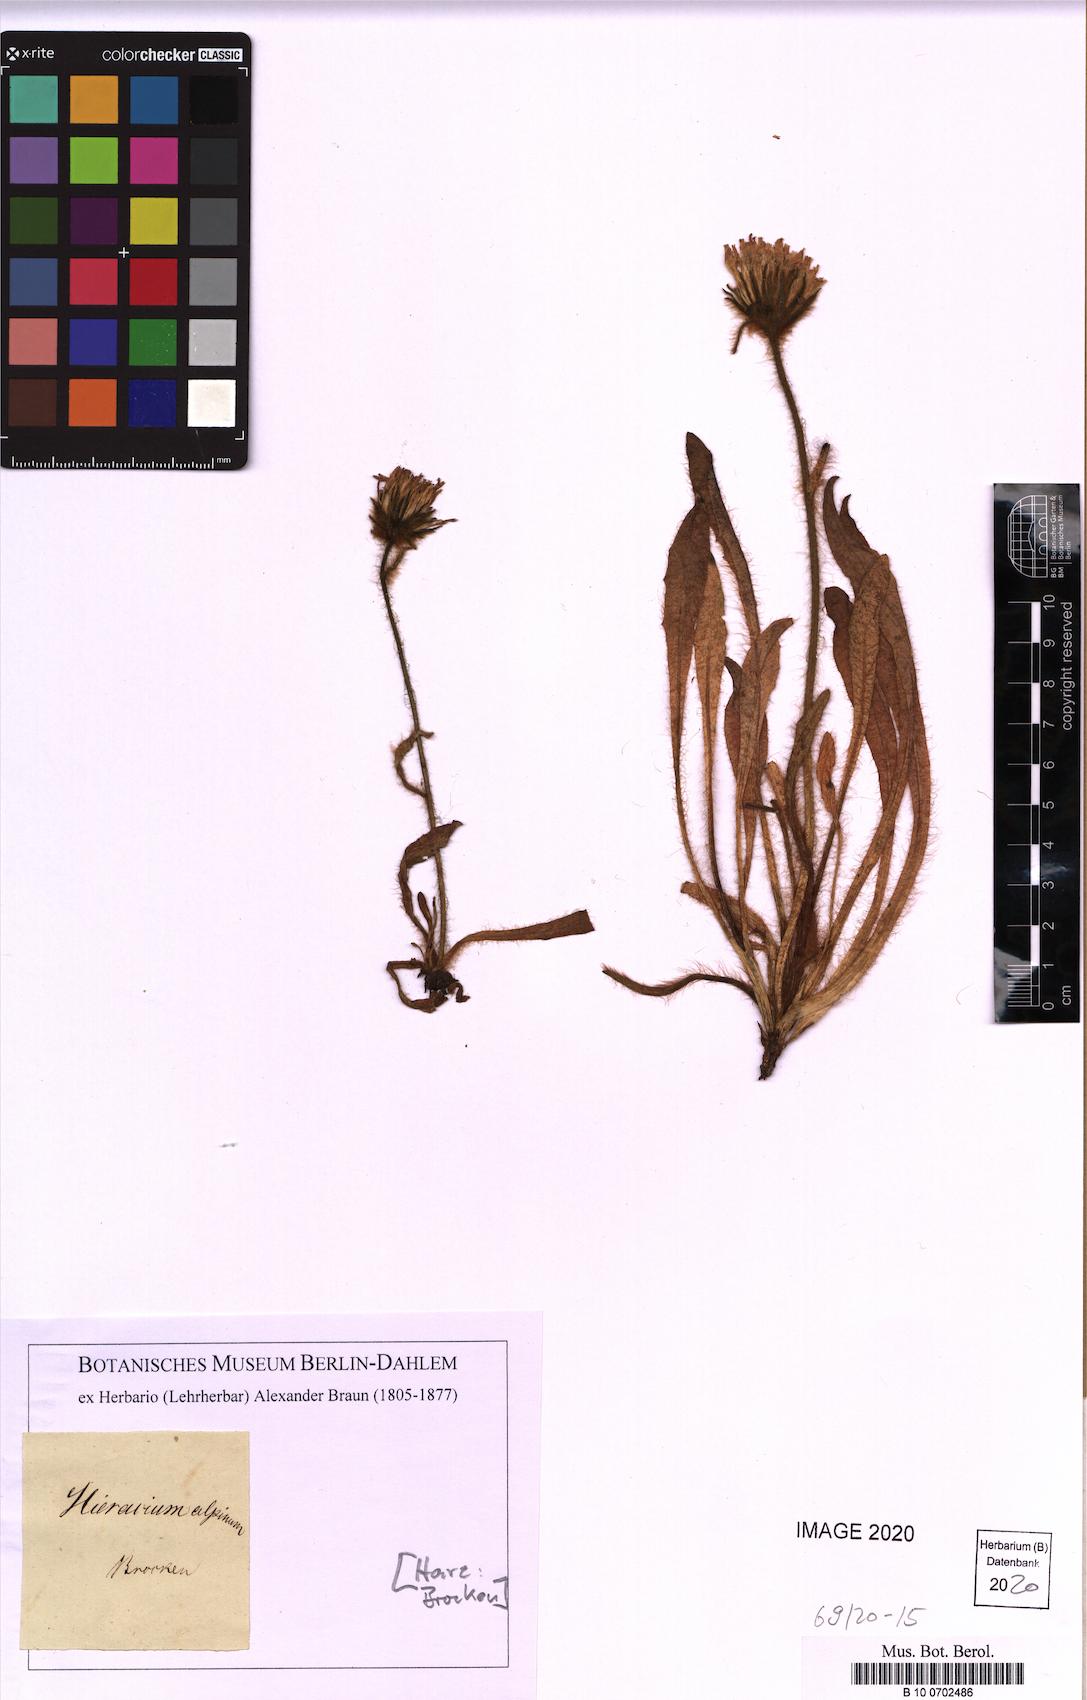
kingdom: Plantae
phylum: Tracheophyta
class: Magnoliopsida
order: Asterales
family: Asteraceae
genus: Hieracium
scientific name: Hieracium alpinum
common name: Alpine hawkweed
